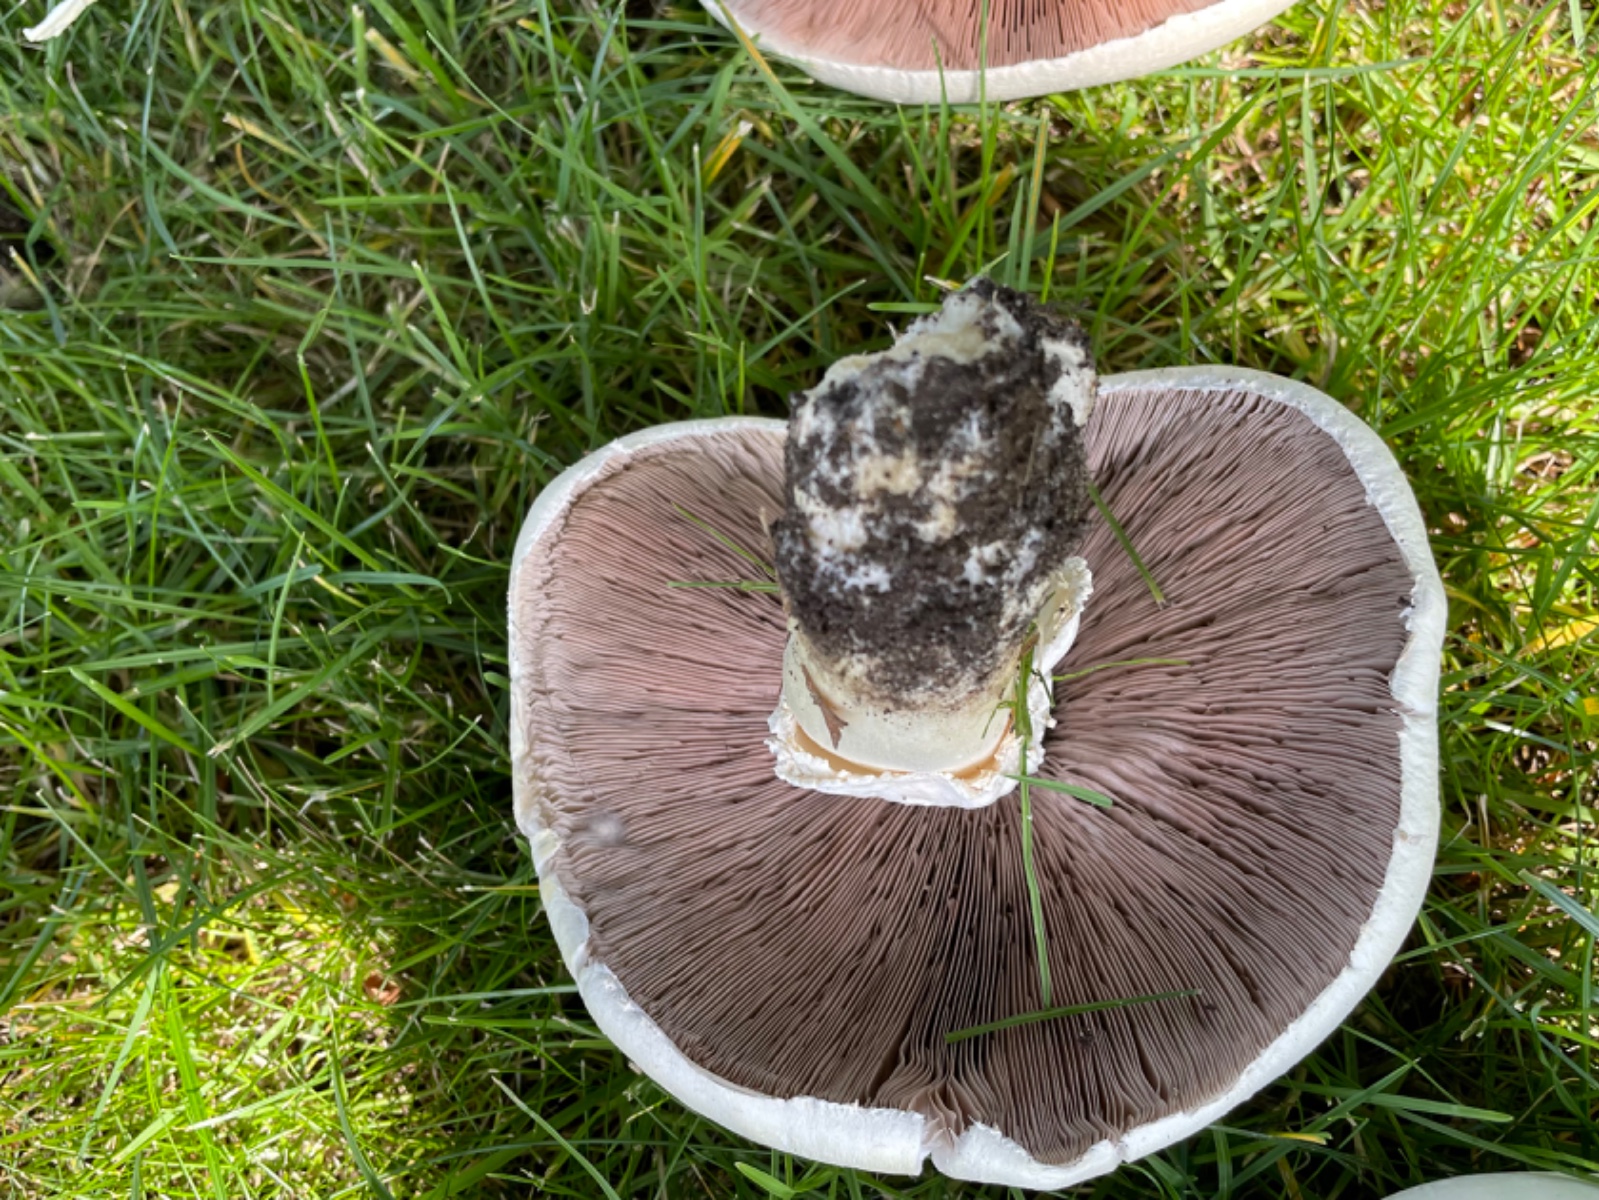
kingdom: Fungi
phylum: Basidiomycota
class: Agaricomycetes
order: Agaricales
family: Agaricaceae
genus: Agaricus
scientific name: Agaricus campestris
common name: mark-champignon
